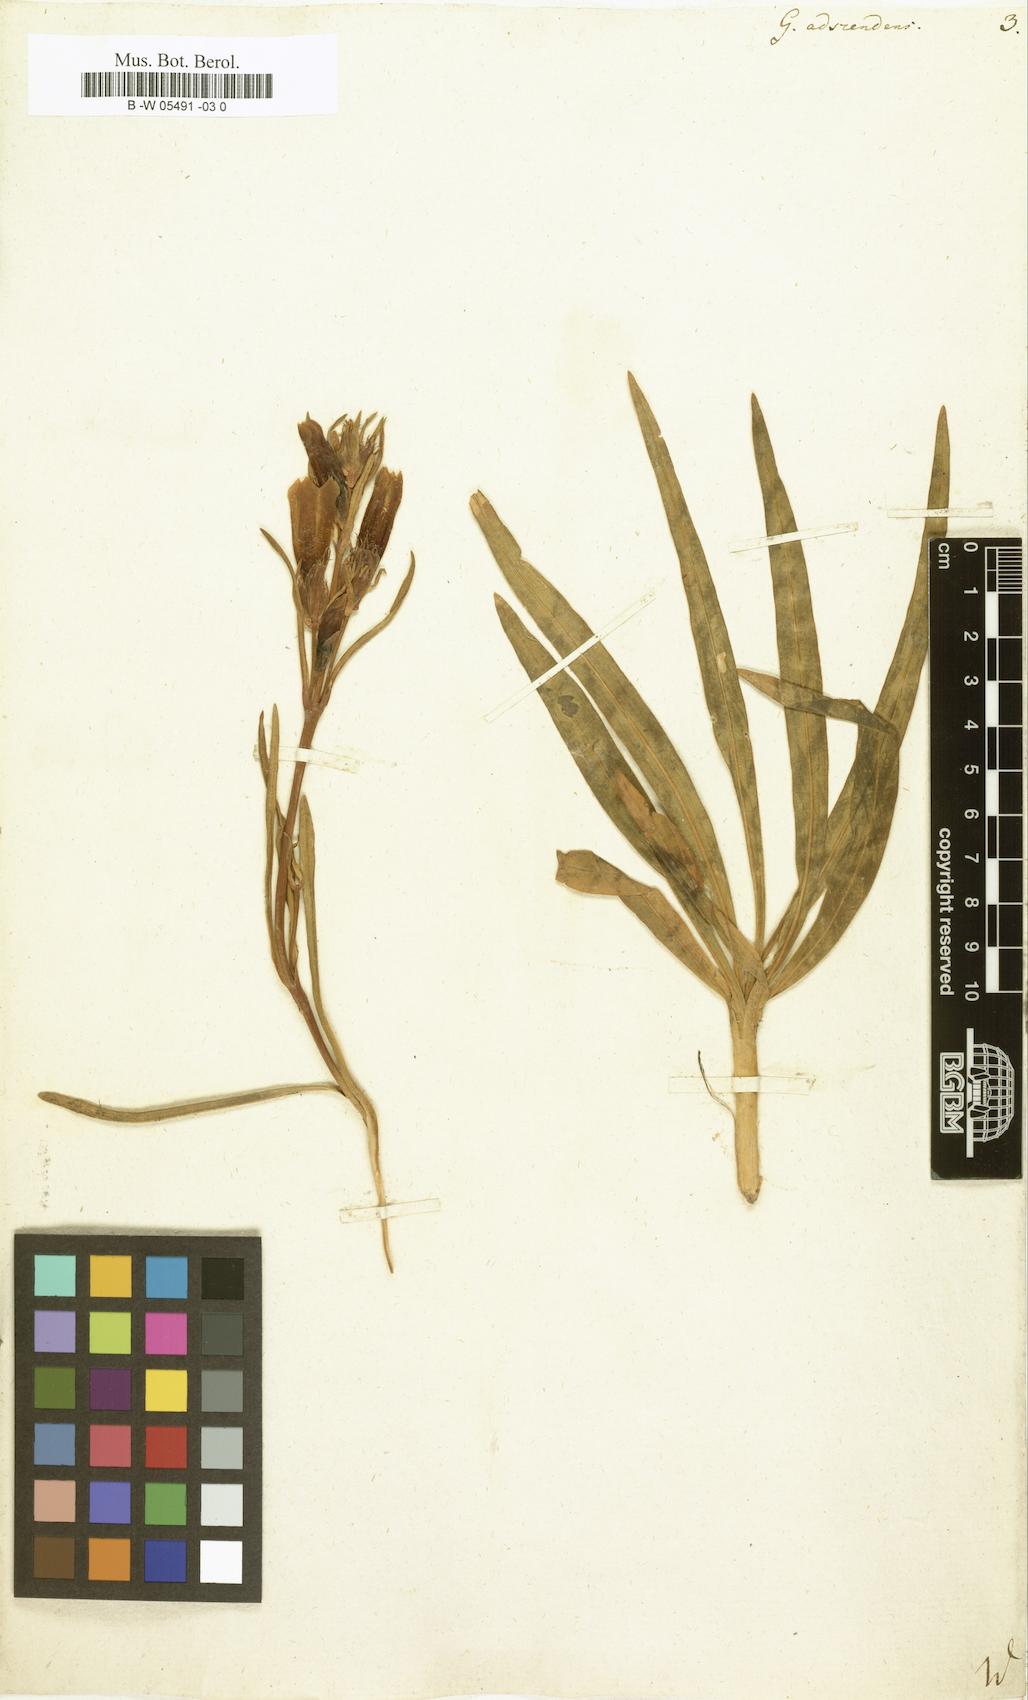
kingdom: Plantae
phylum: Tracheophyta
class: Magnoliopsida
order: Gentianales
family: Gentianaceae
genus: Gentiana
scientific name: Gentiana decumbens
